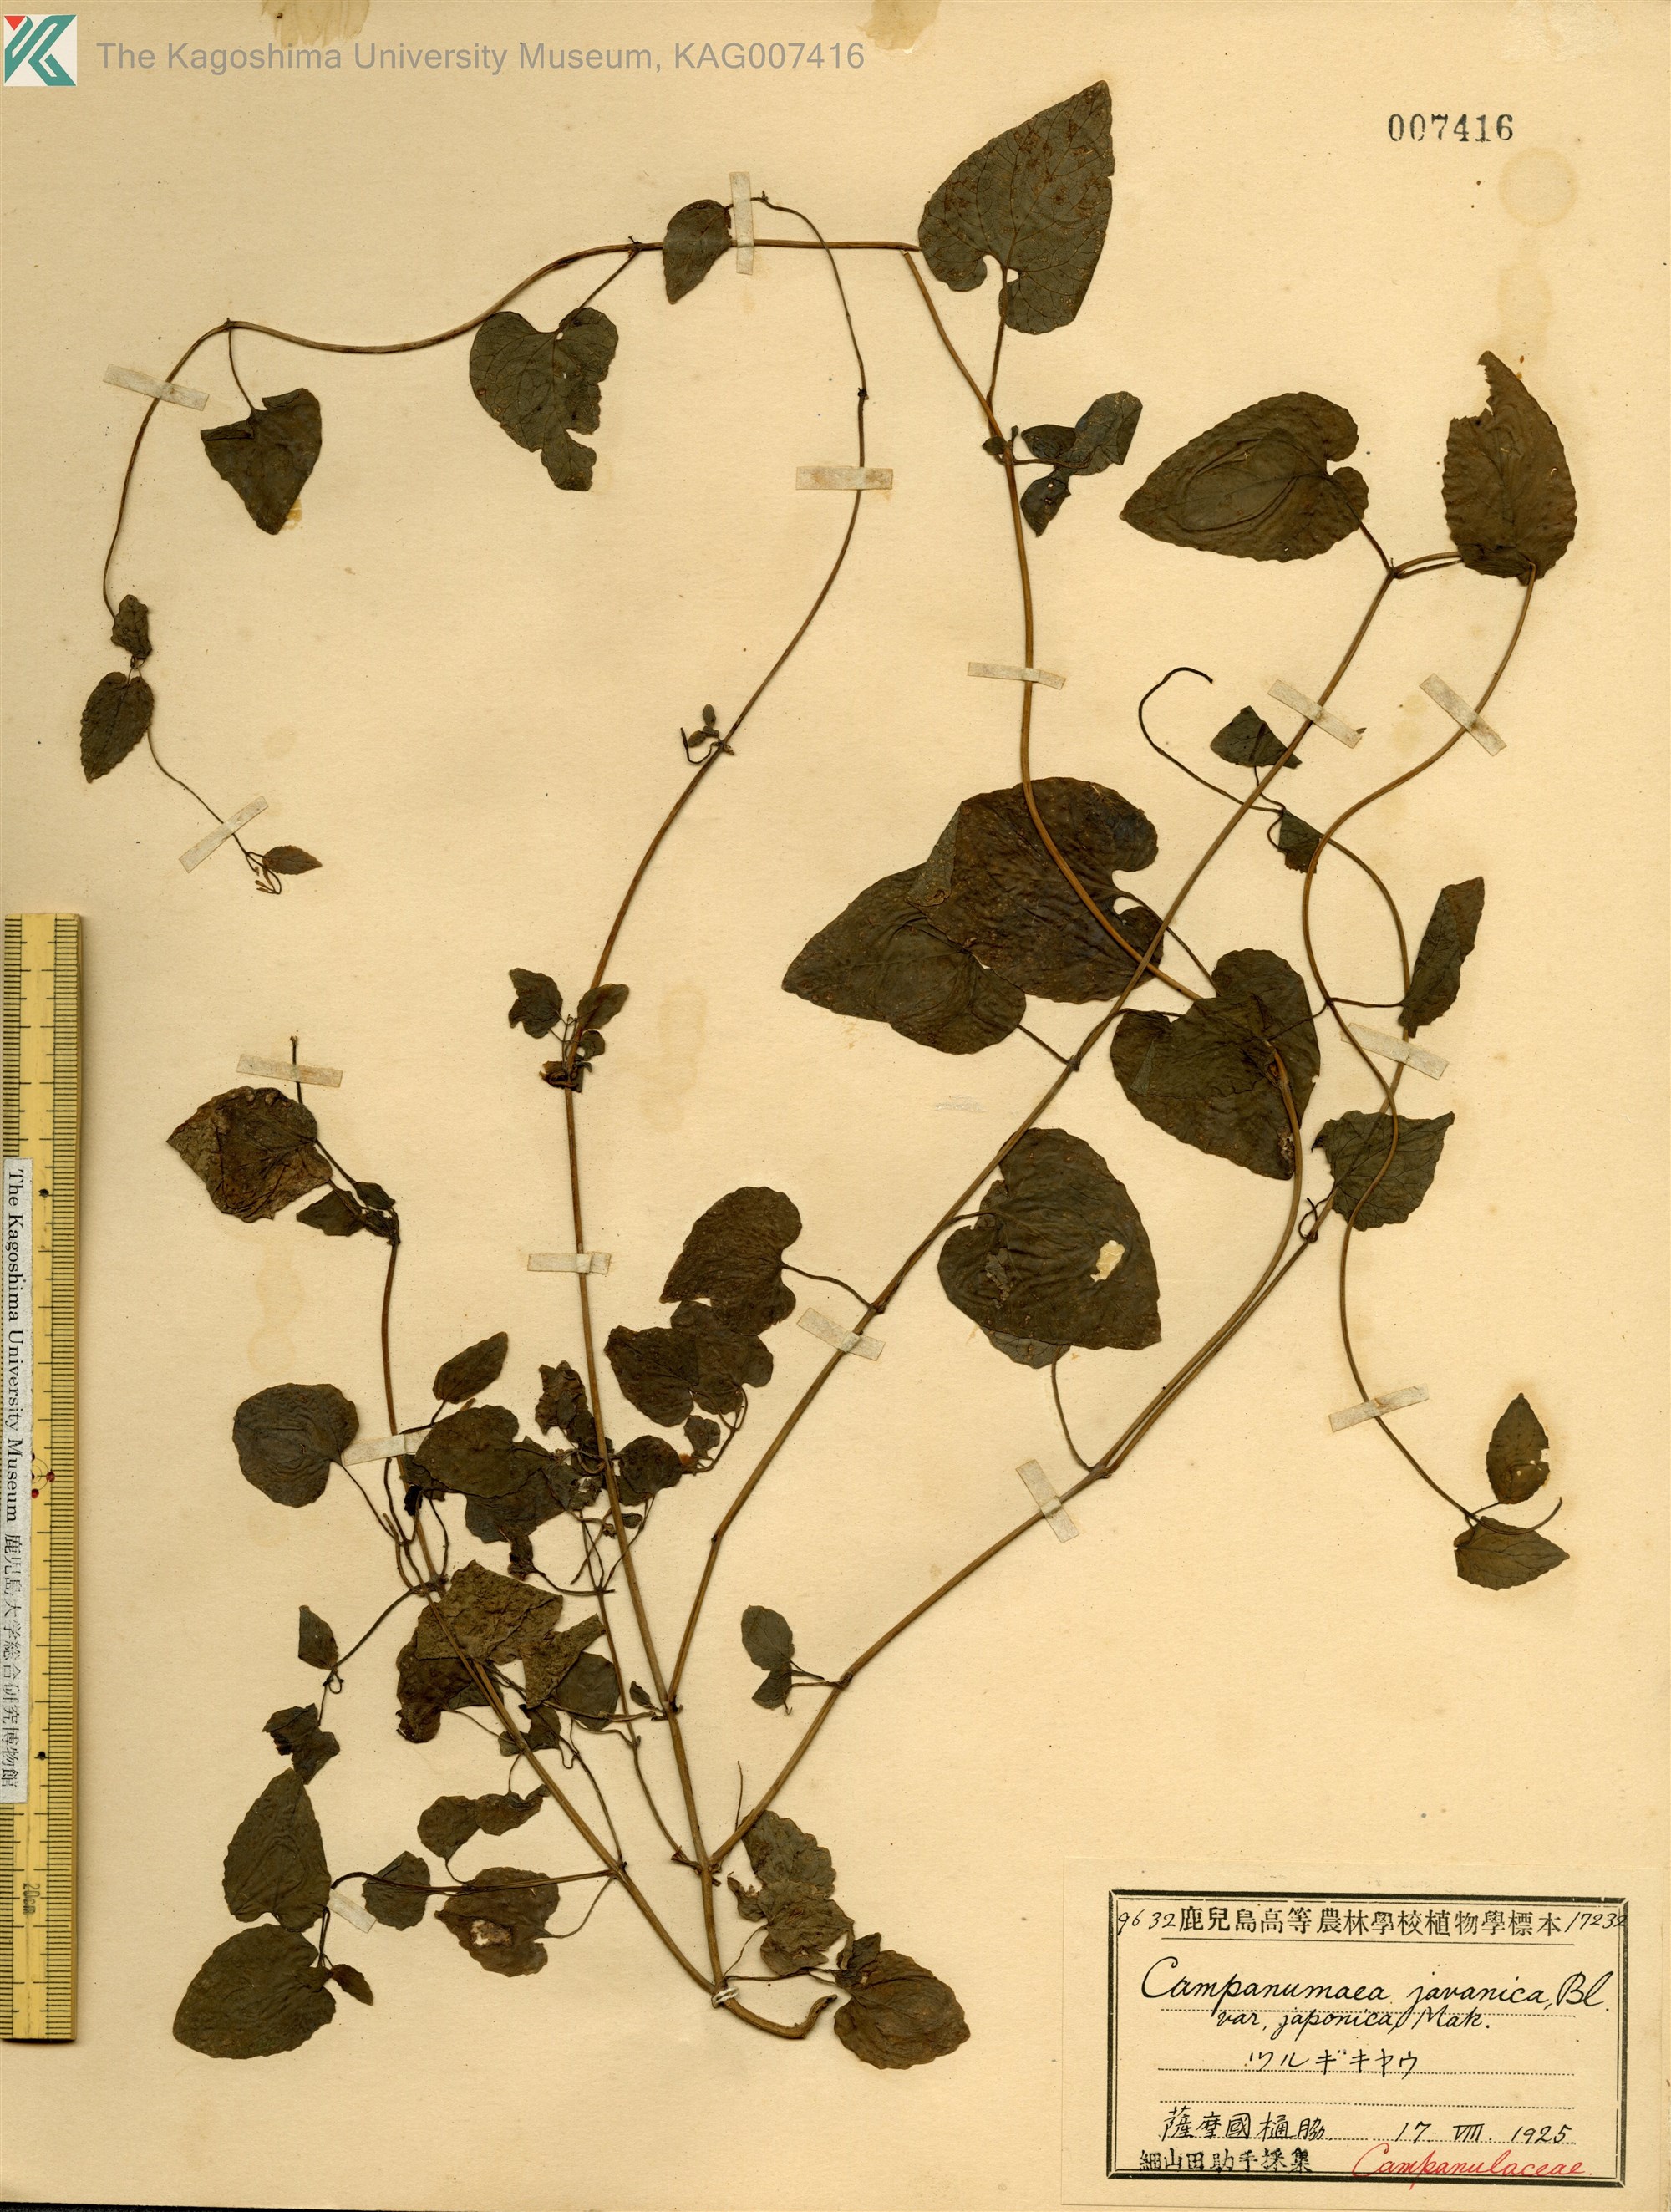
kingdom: Plantae
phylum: Tracheophyta
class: Magnoliopsida
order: Asterales
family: Campanulaceae
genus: Codonopsis
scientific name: Codonopsis javanica
